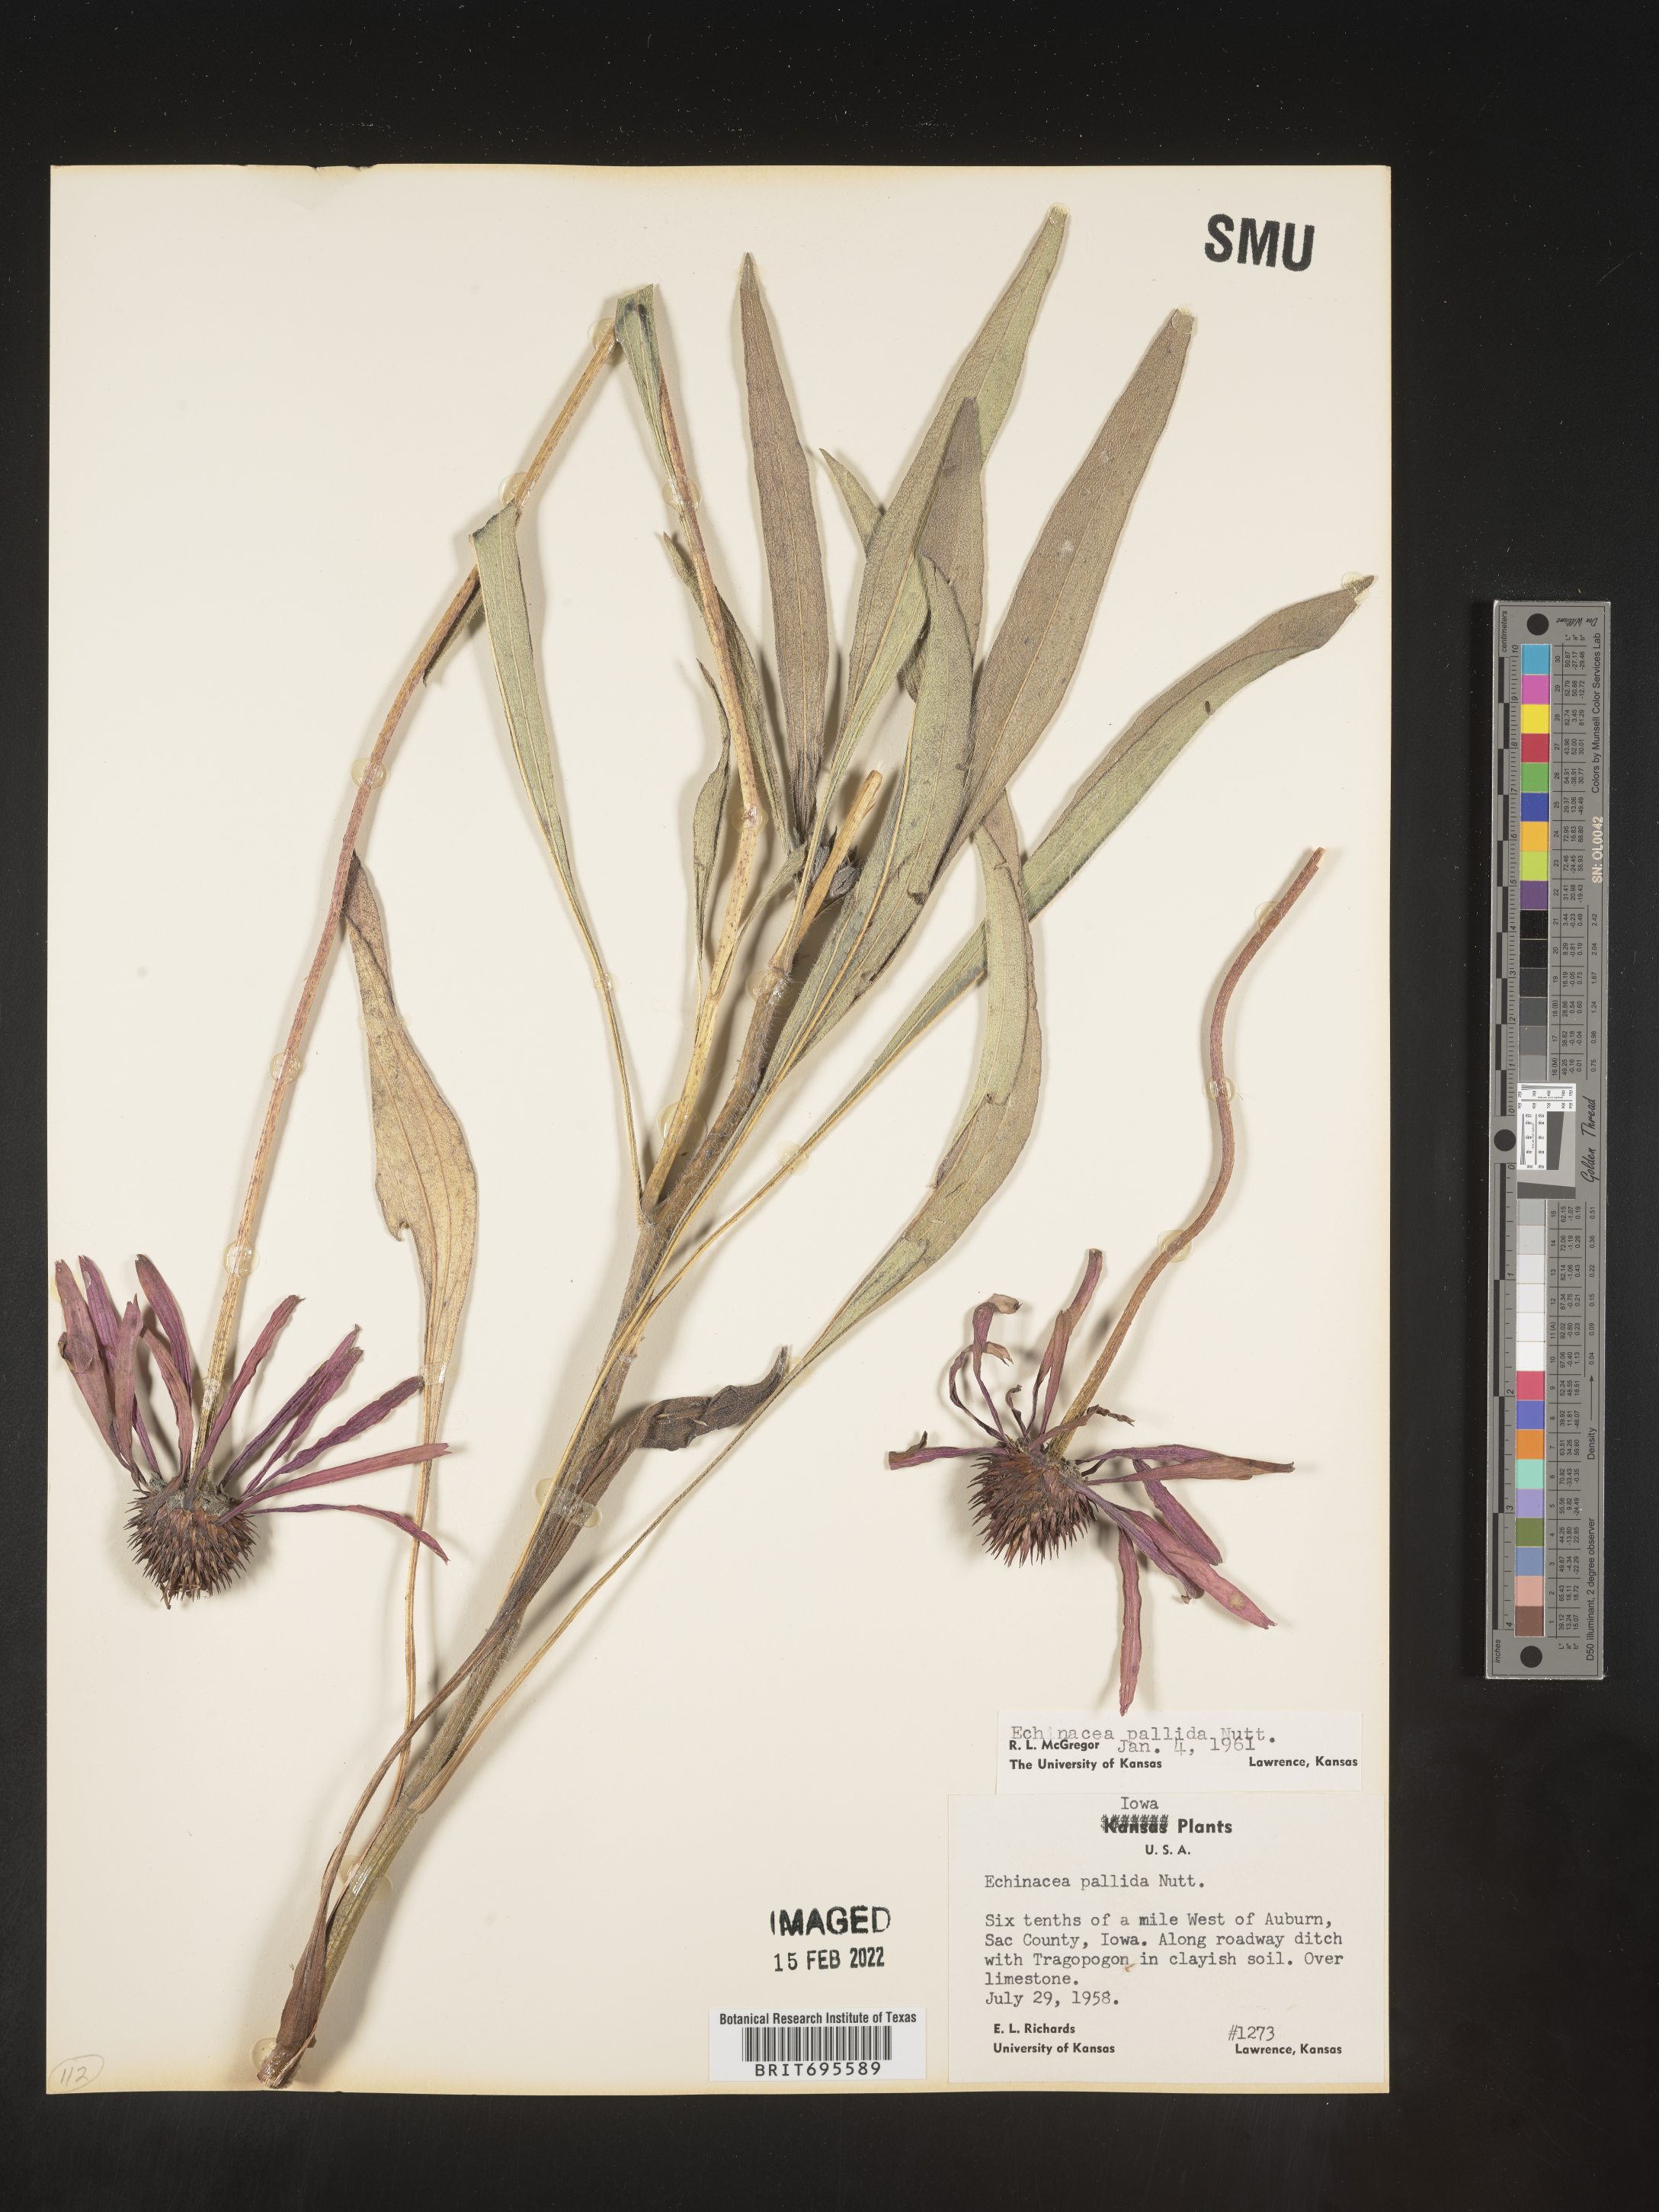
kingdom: Plantae
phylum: Tracheophyta
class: Magnoliopsida
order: Asterales
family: Asteraceae
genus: Echinacea
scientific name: Echinacea pallida
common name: Pale echinacea
